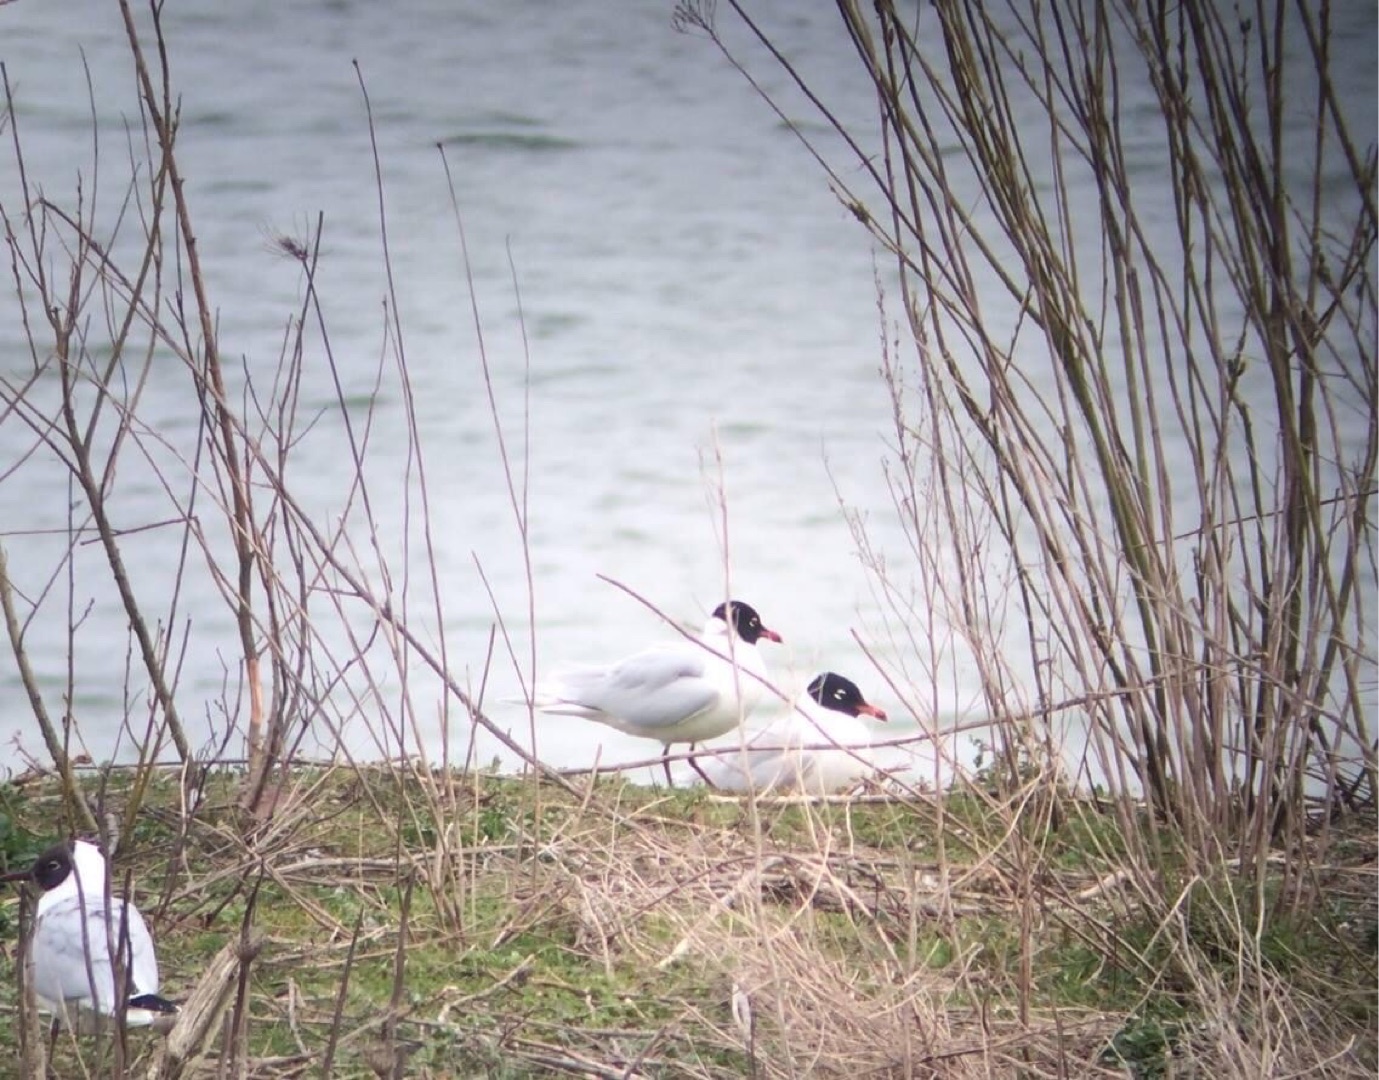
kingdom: Animalia
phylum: Chordata
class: Aves
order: Charadriiformes
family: Laridae
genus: Ichthyaetus
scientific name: Ichthyaetus melanocephalus
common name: Sorthovedet måge
